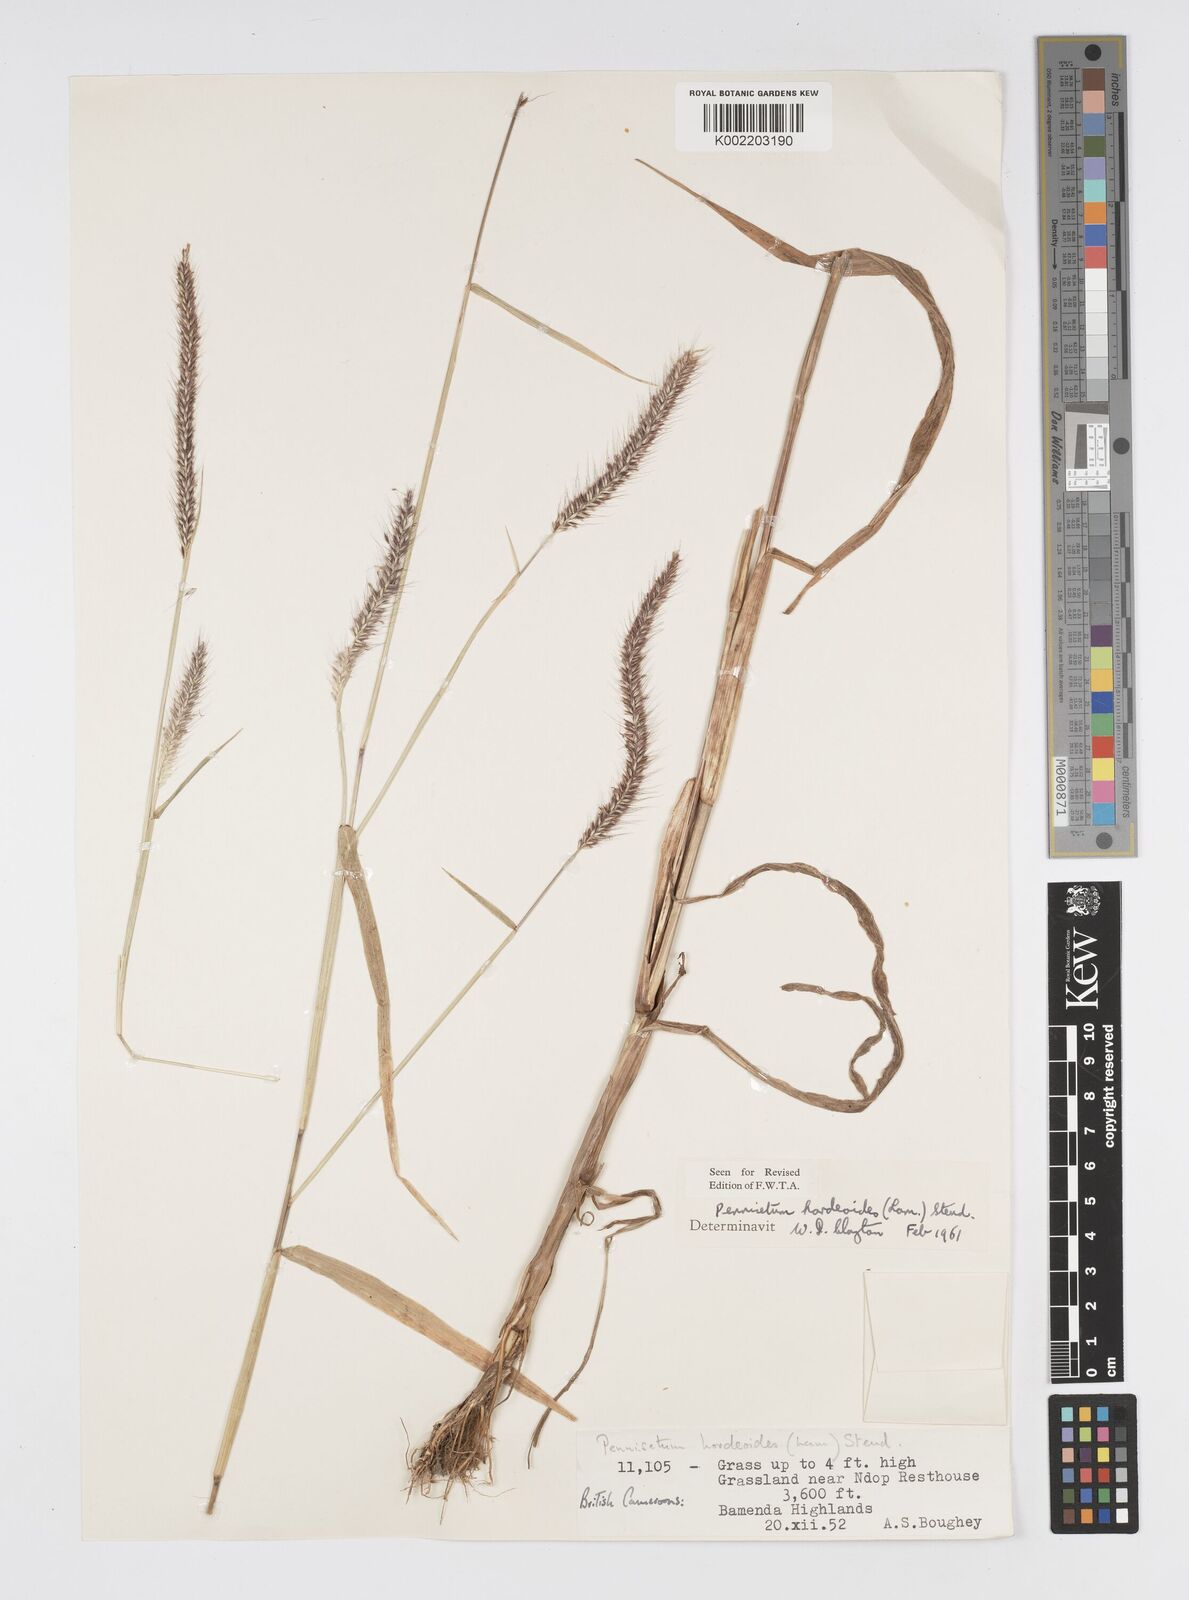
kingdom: Plantae
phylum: Tracheophyta
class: Liliopsida
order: Poales
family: Poaceae
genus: Cenchrus
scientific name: Cenchrus hordeoides
